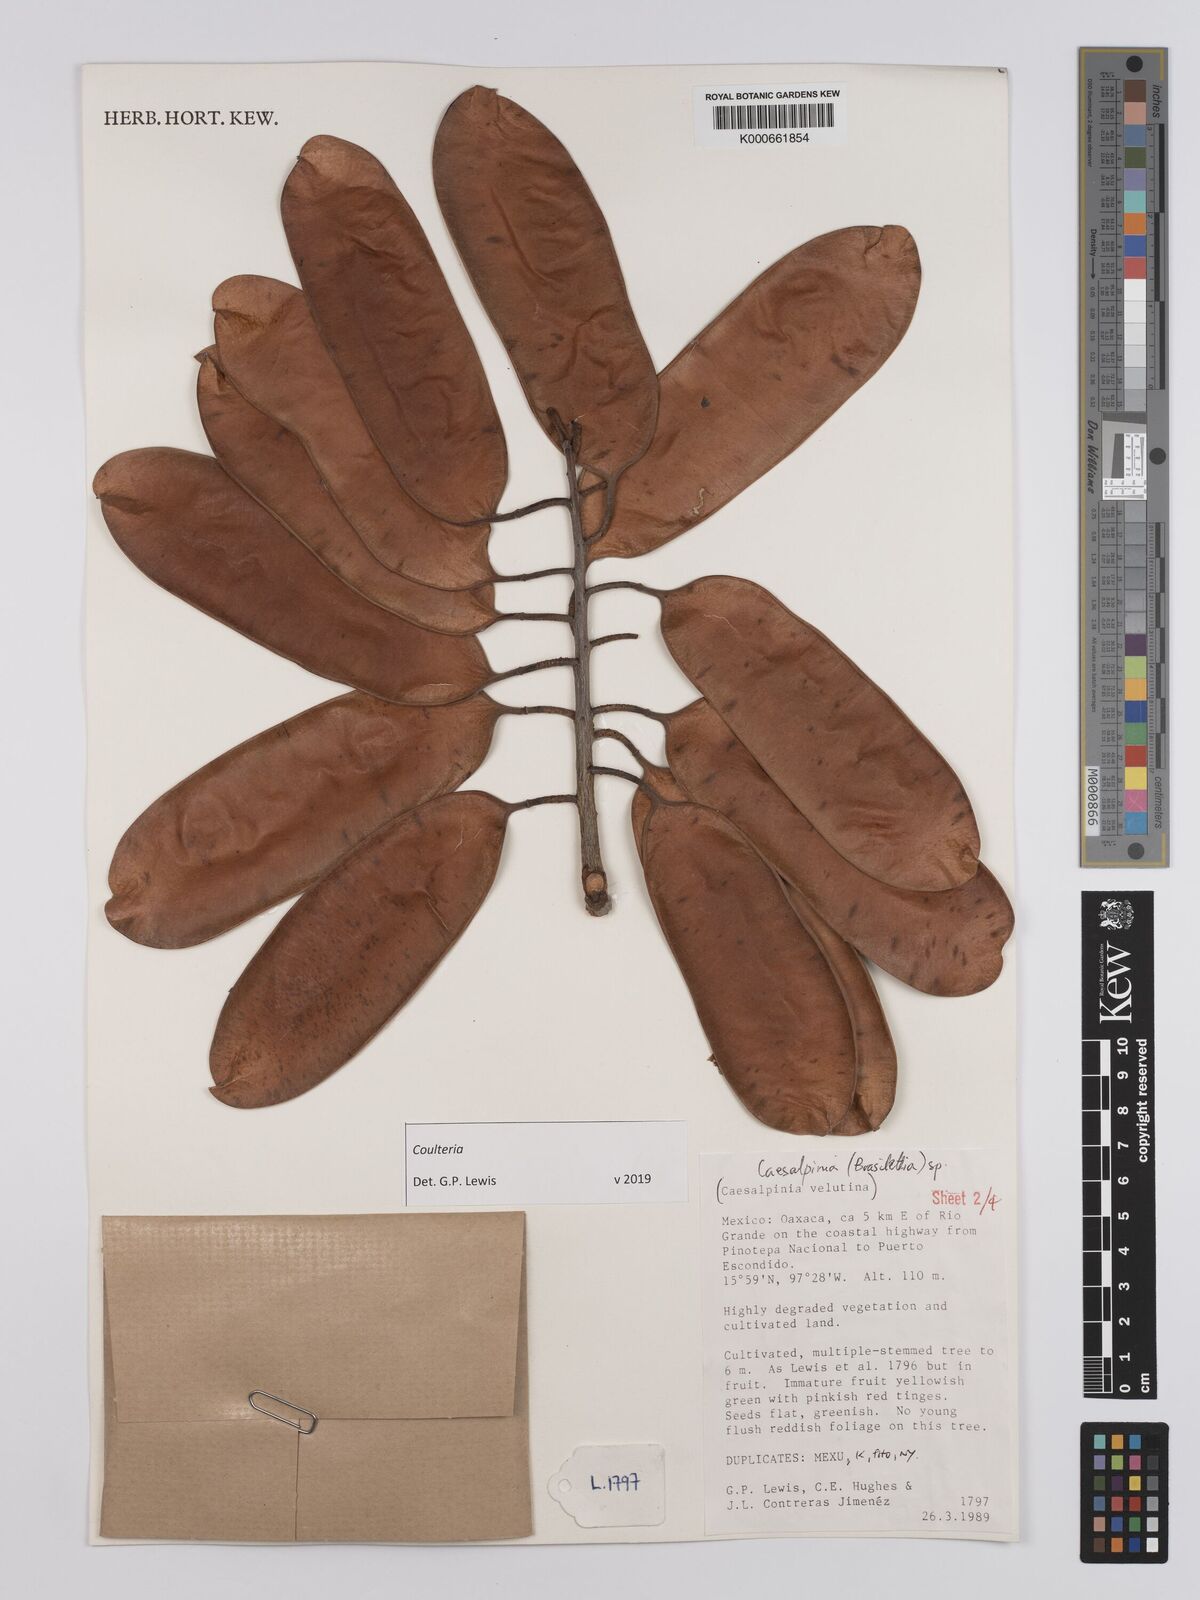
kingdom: Plantae
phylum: Tracheophyta
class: Magnoliopsida
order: Fabales
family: Fabaceae
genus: Coulteria
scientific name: Coulteria
